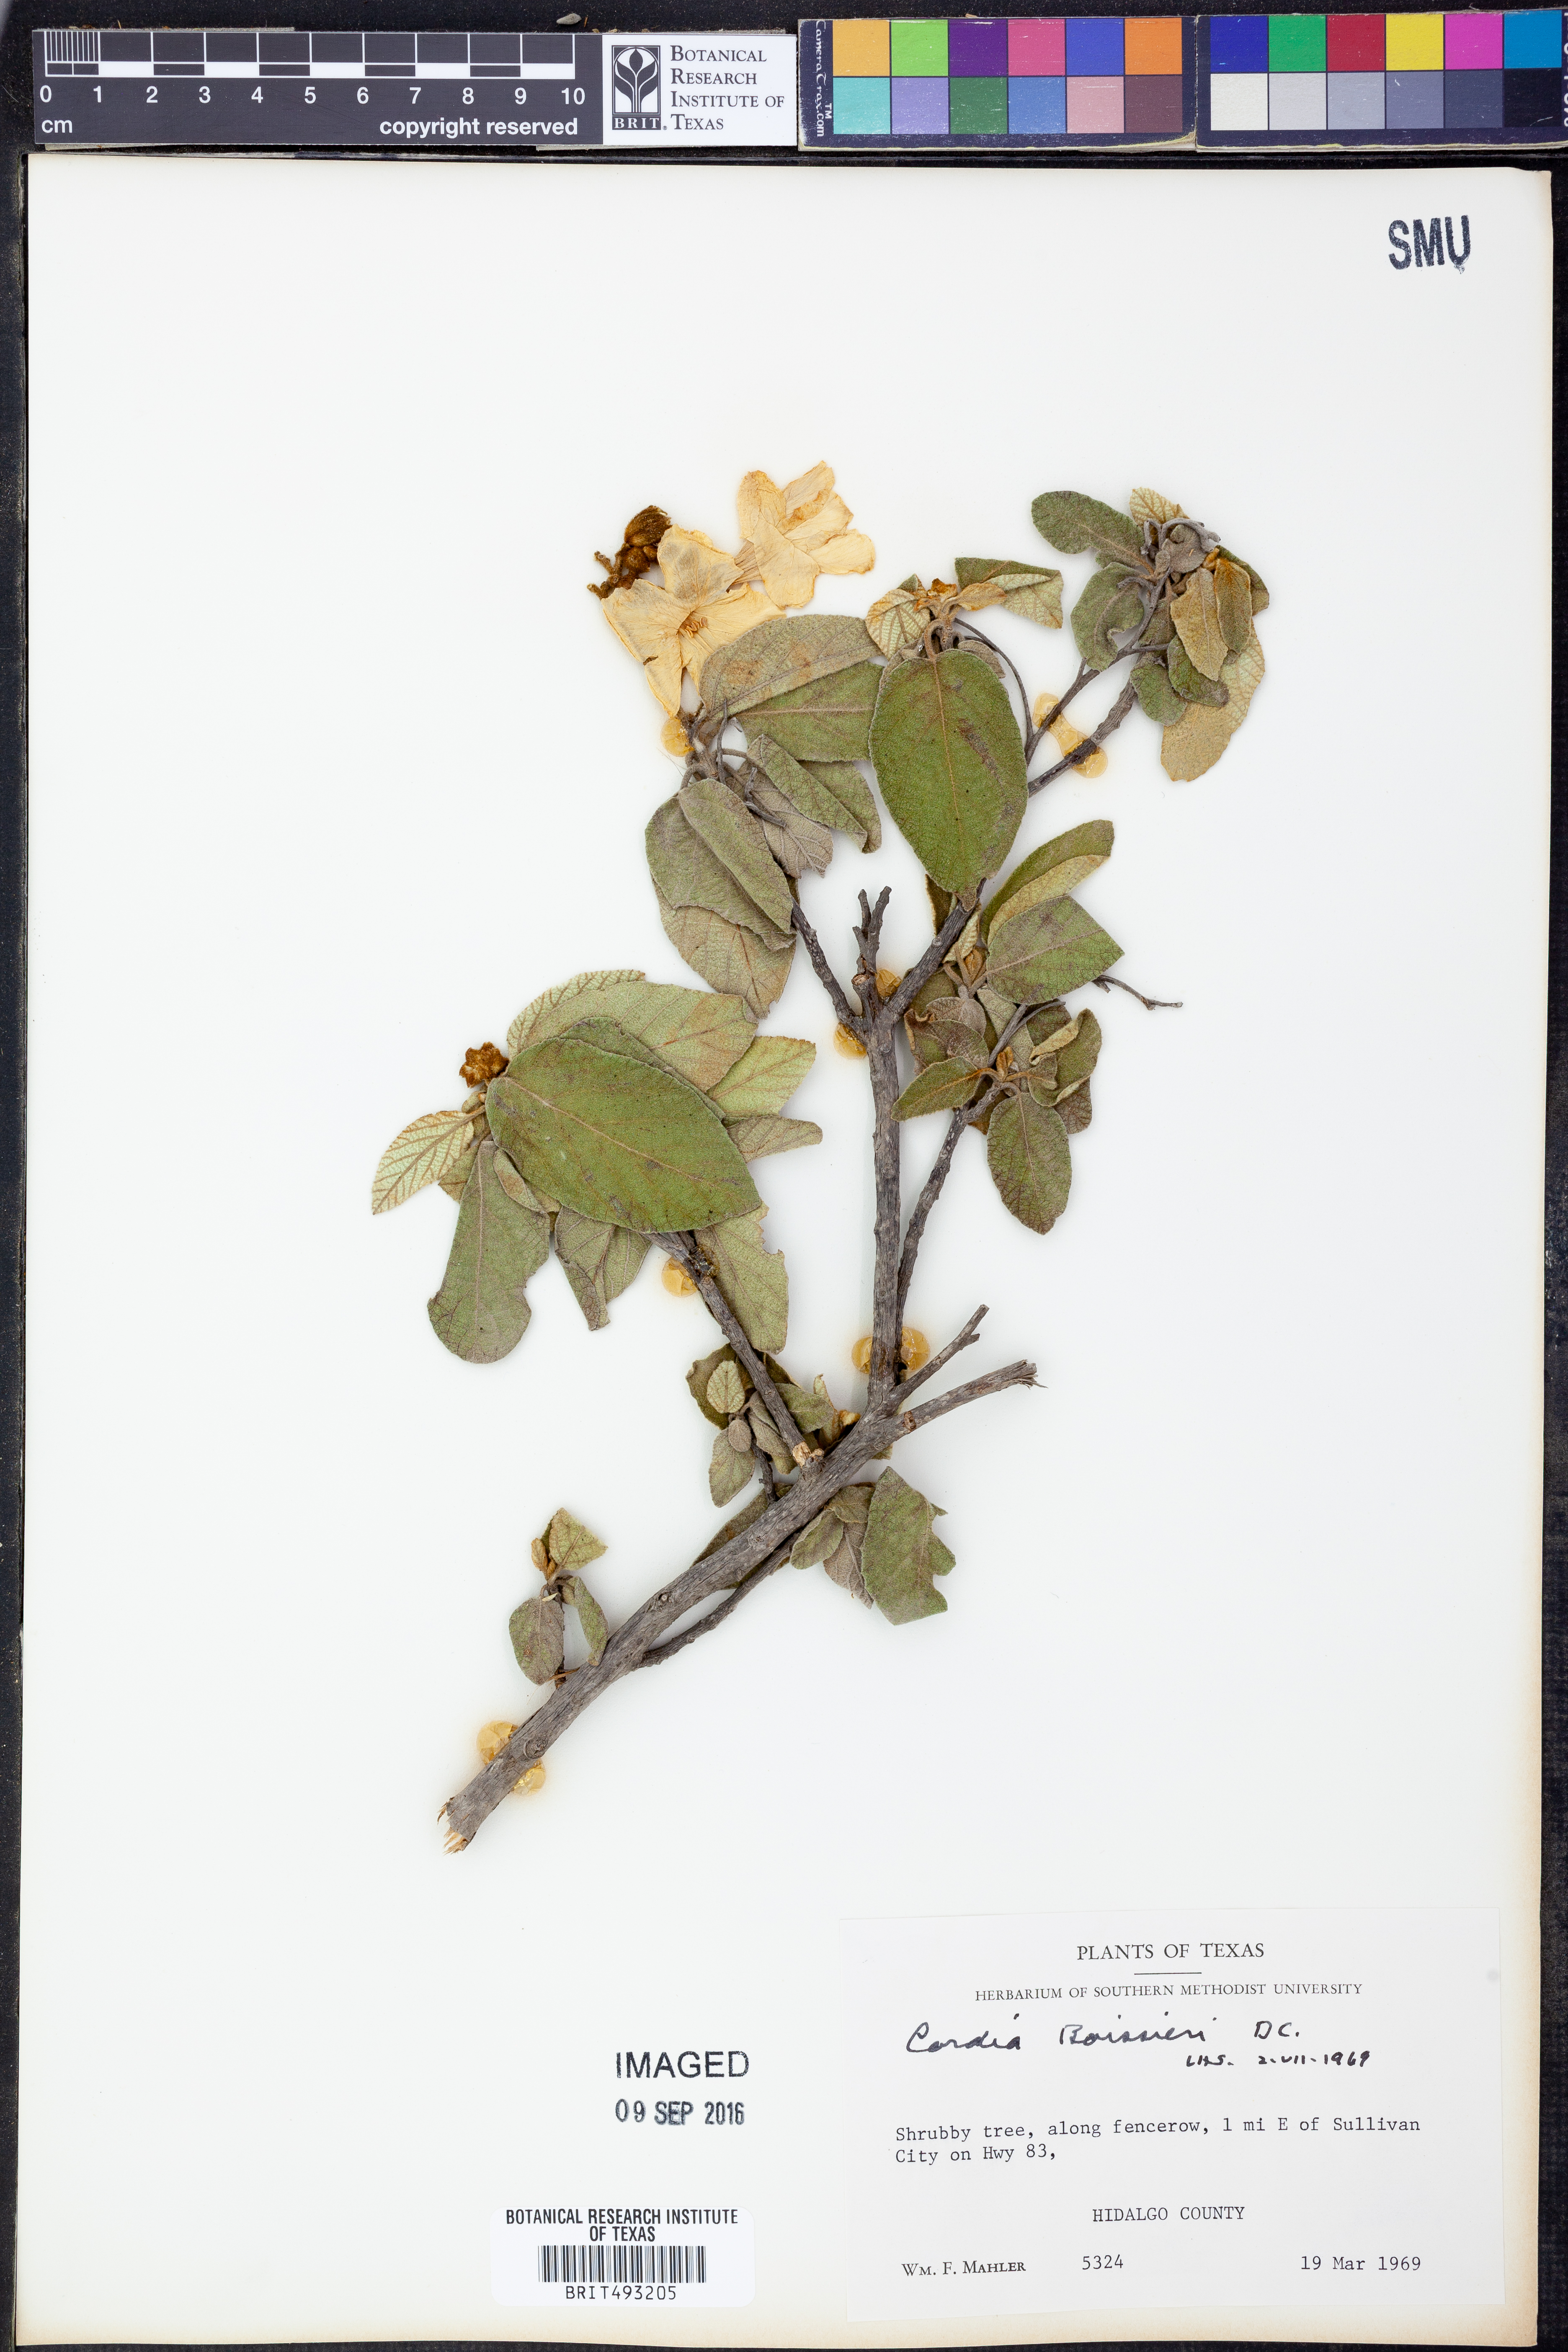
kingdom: Plantae
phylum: Tracheophyta
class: Magnoliopsida
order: Boraginales
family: Cordiaceae
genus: Cordia
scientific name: Cordia boissieri
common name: Mexican-olive
